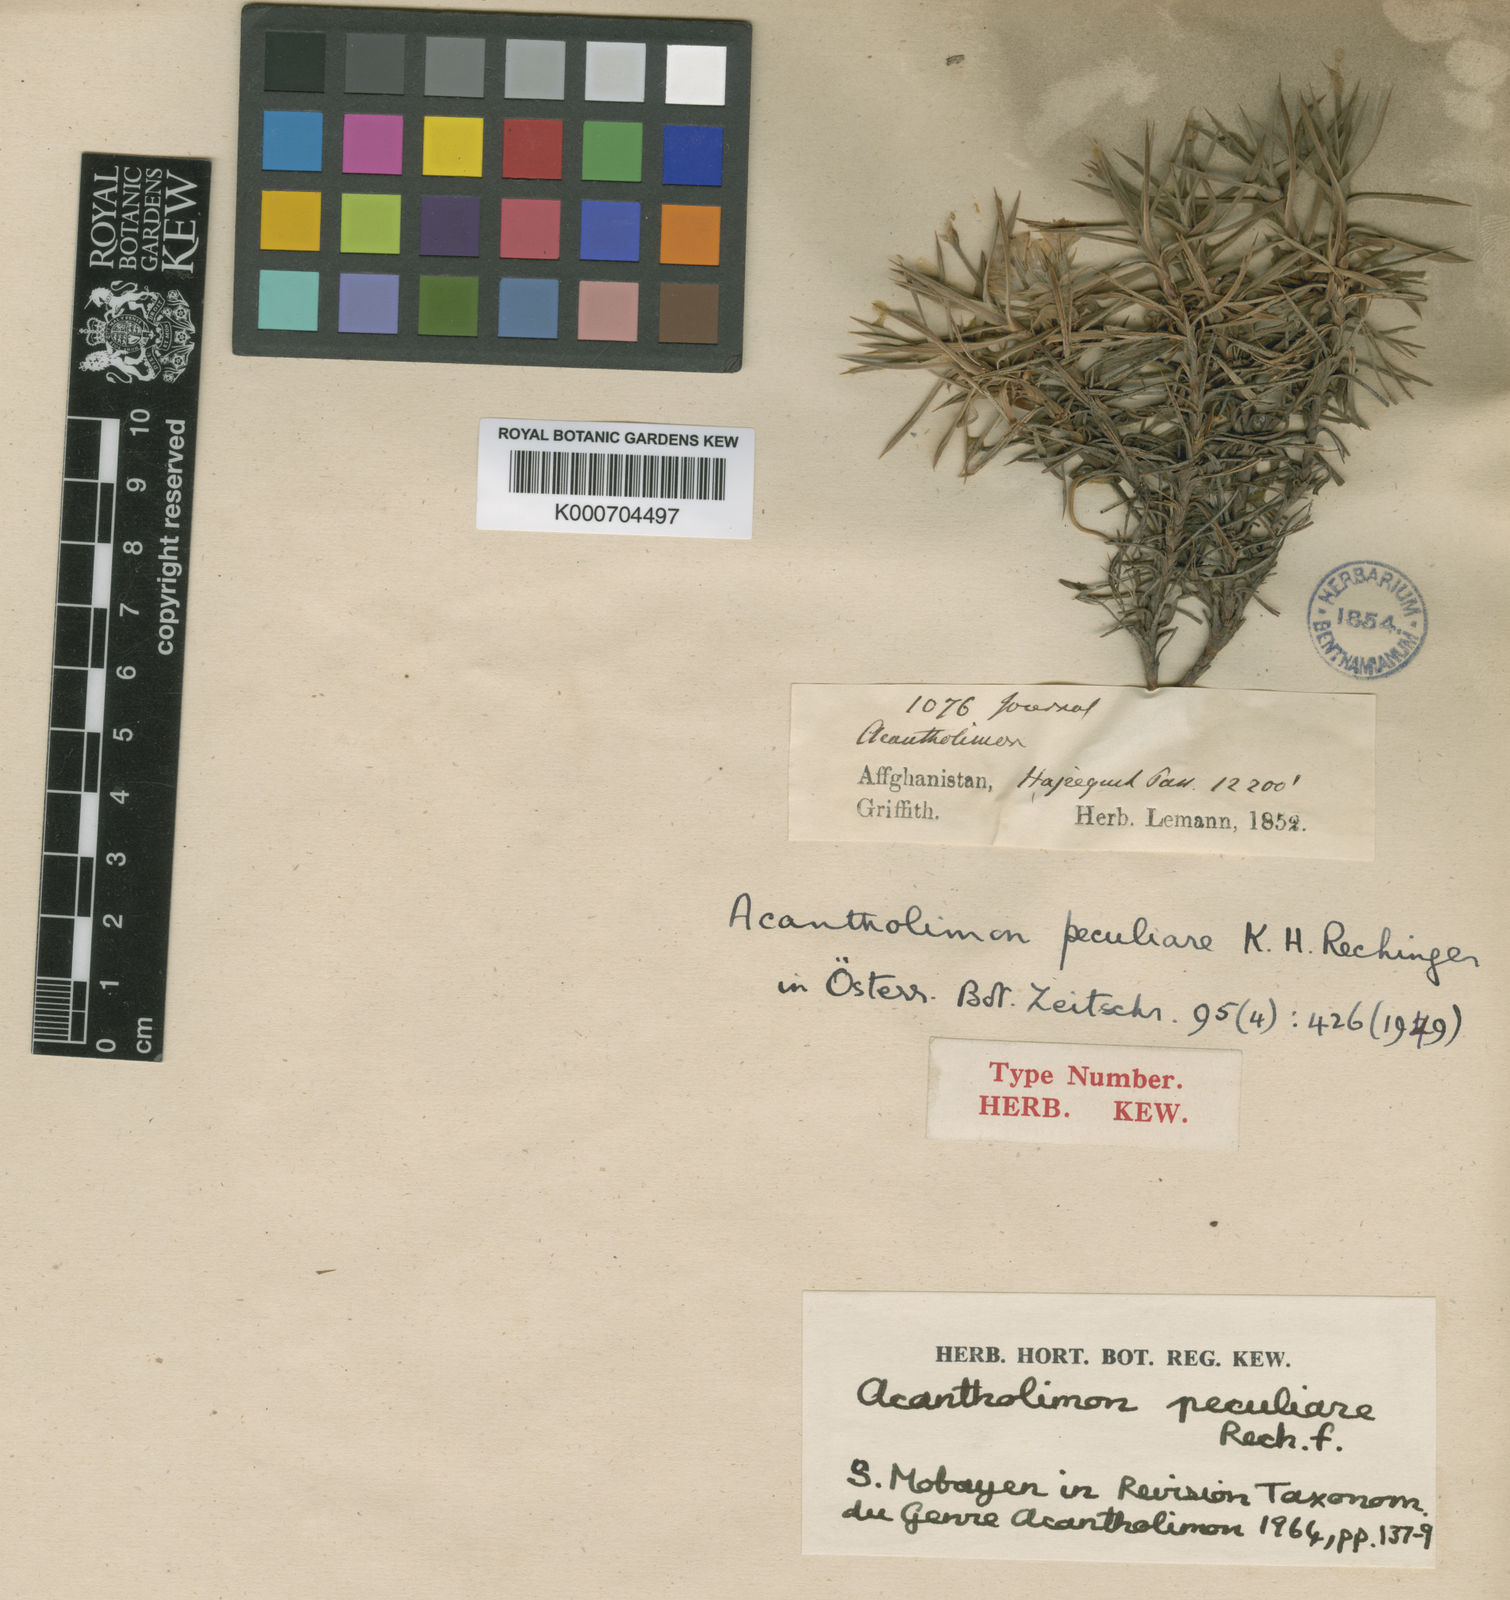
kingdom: Plantae
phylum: Tracheophyta
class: Magnoliopsida
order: Caryophyllales
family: Plumbaginaceae
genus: Acantholimon
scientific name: Acantholimon peculiare
